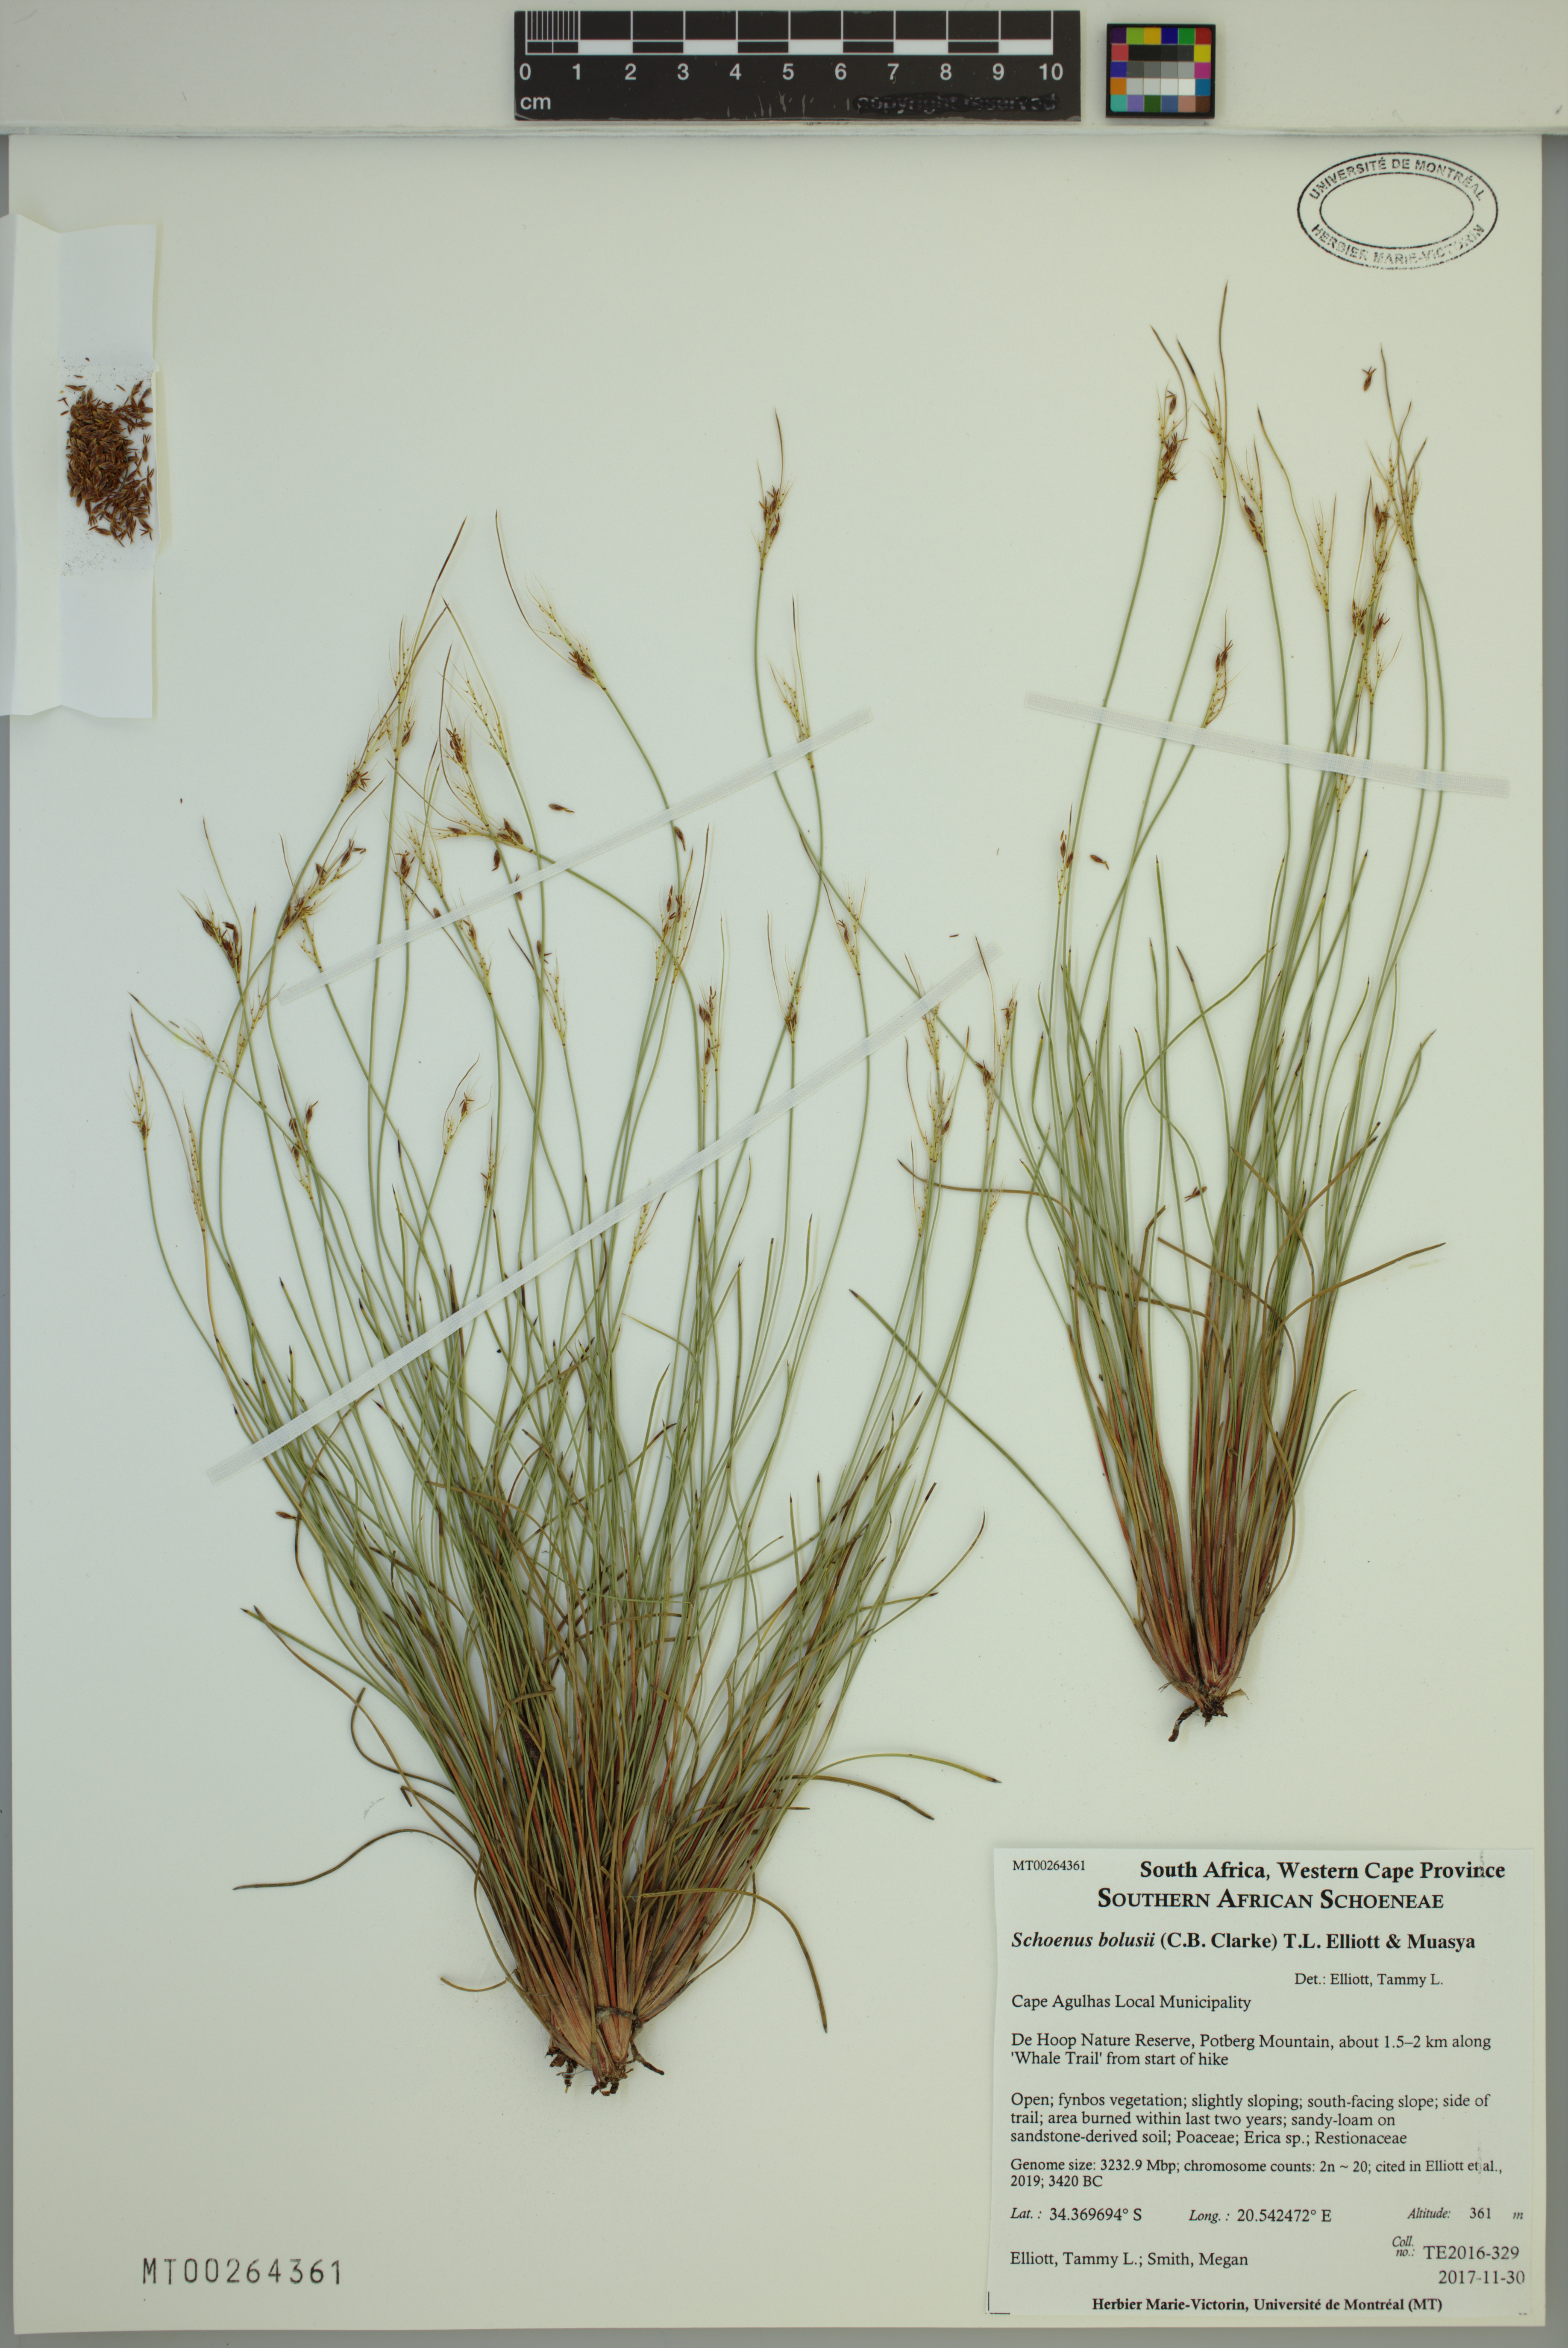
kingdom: Plantae
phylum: Tracheophyta
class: Liliopsida
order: Poales
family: Cyperaceae
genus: Schoenus
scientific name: Schoenus bolusii
